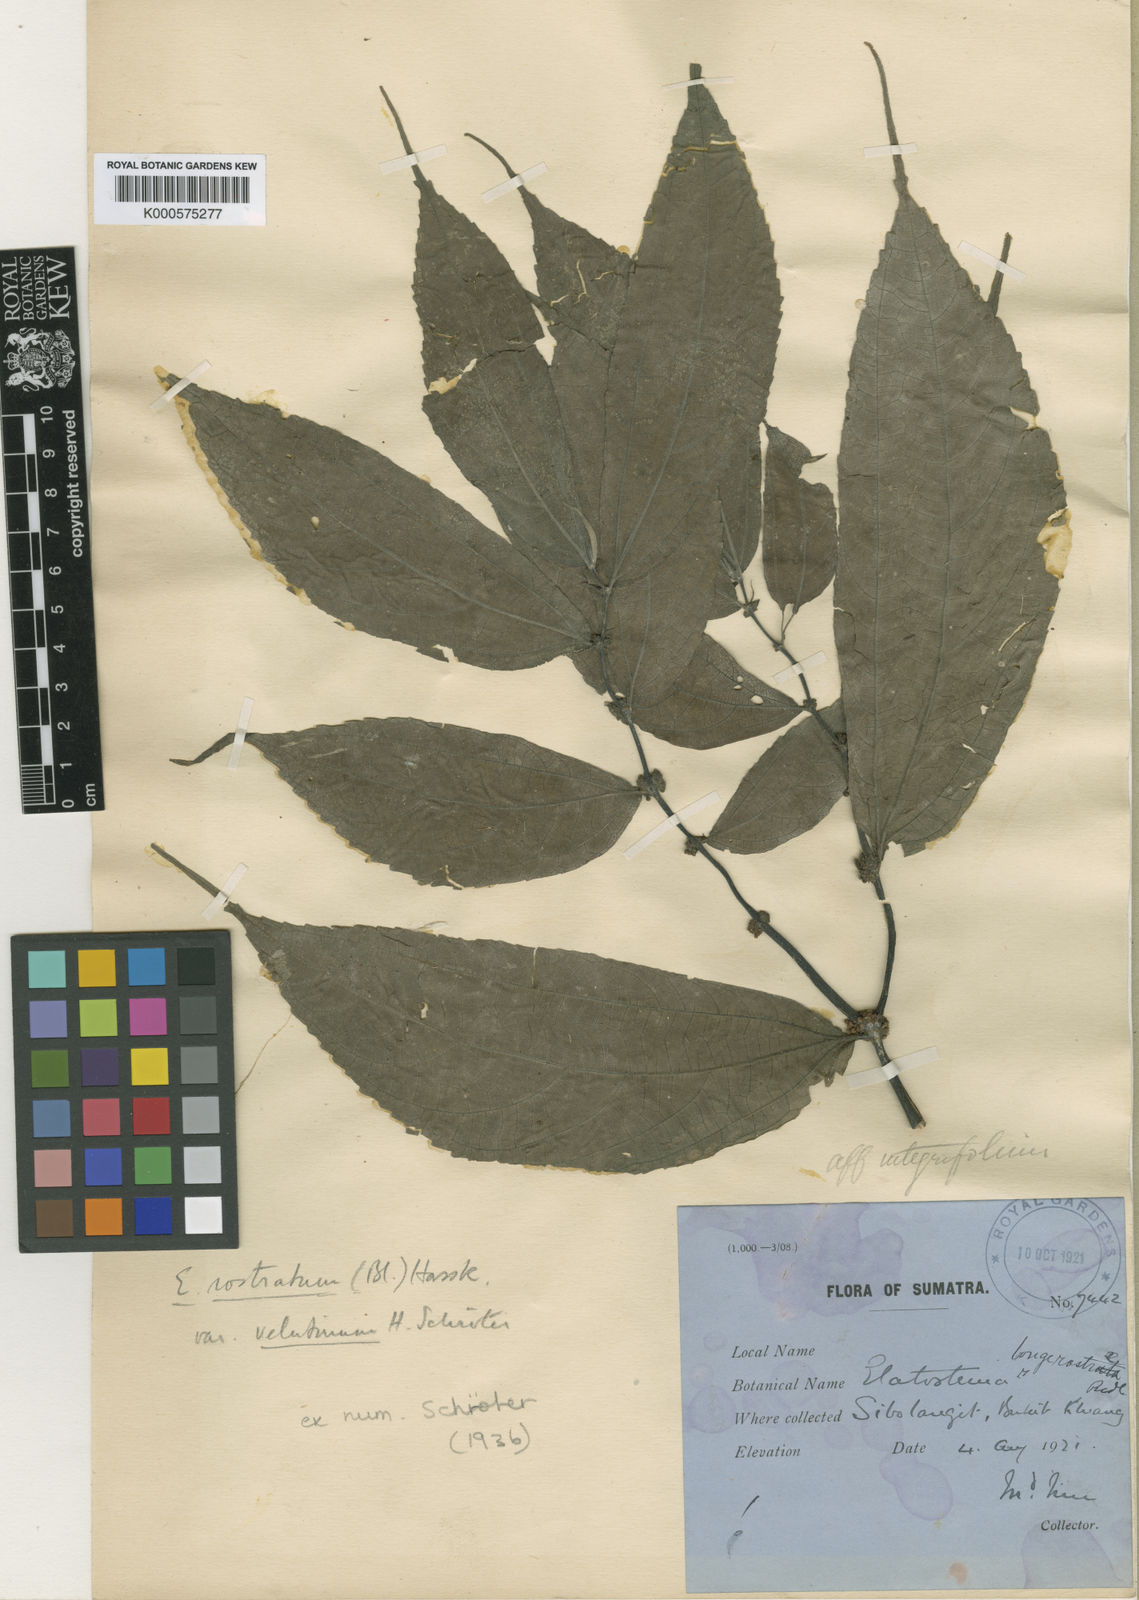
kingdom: Plantae
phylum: Tracheophyta
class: Magnoliopsida
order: Rosales
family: Urticaceae
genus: Elatostema
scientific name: Elatostema rostratum
